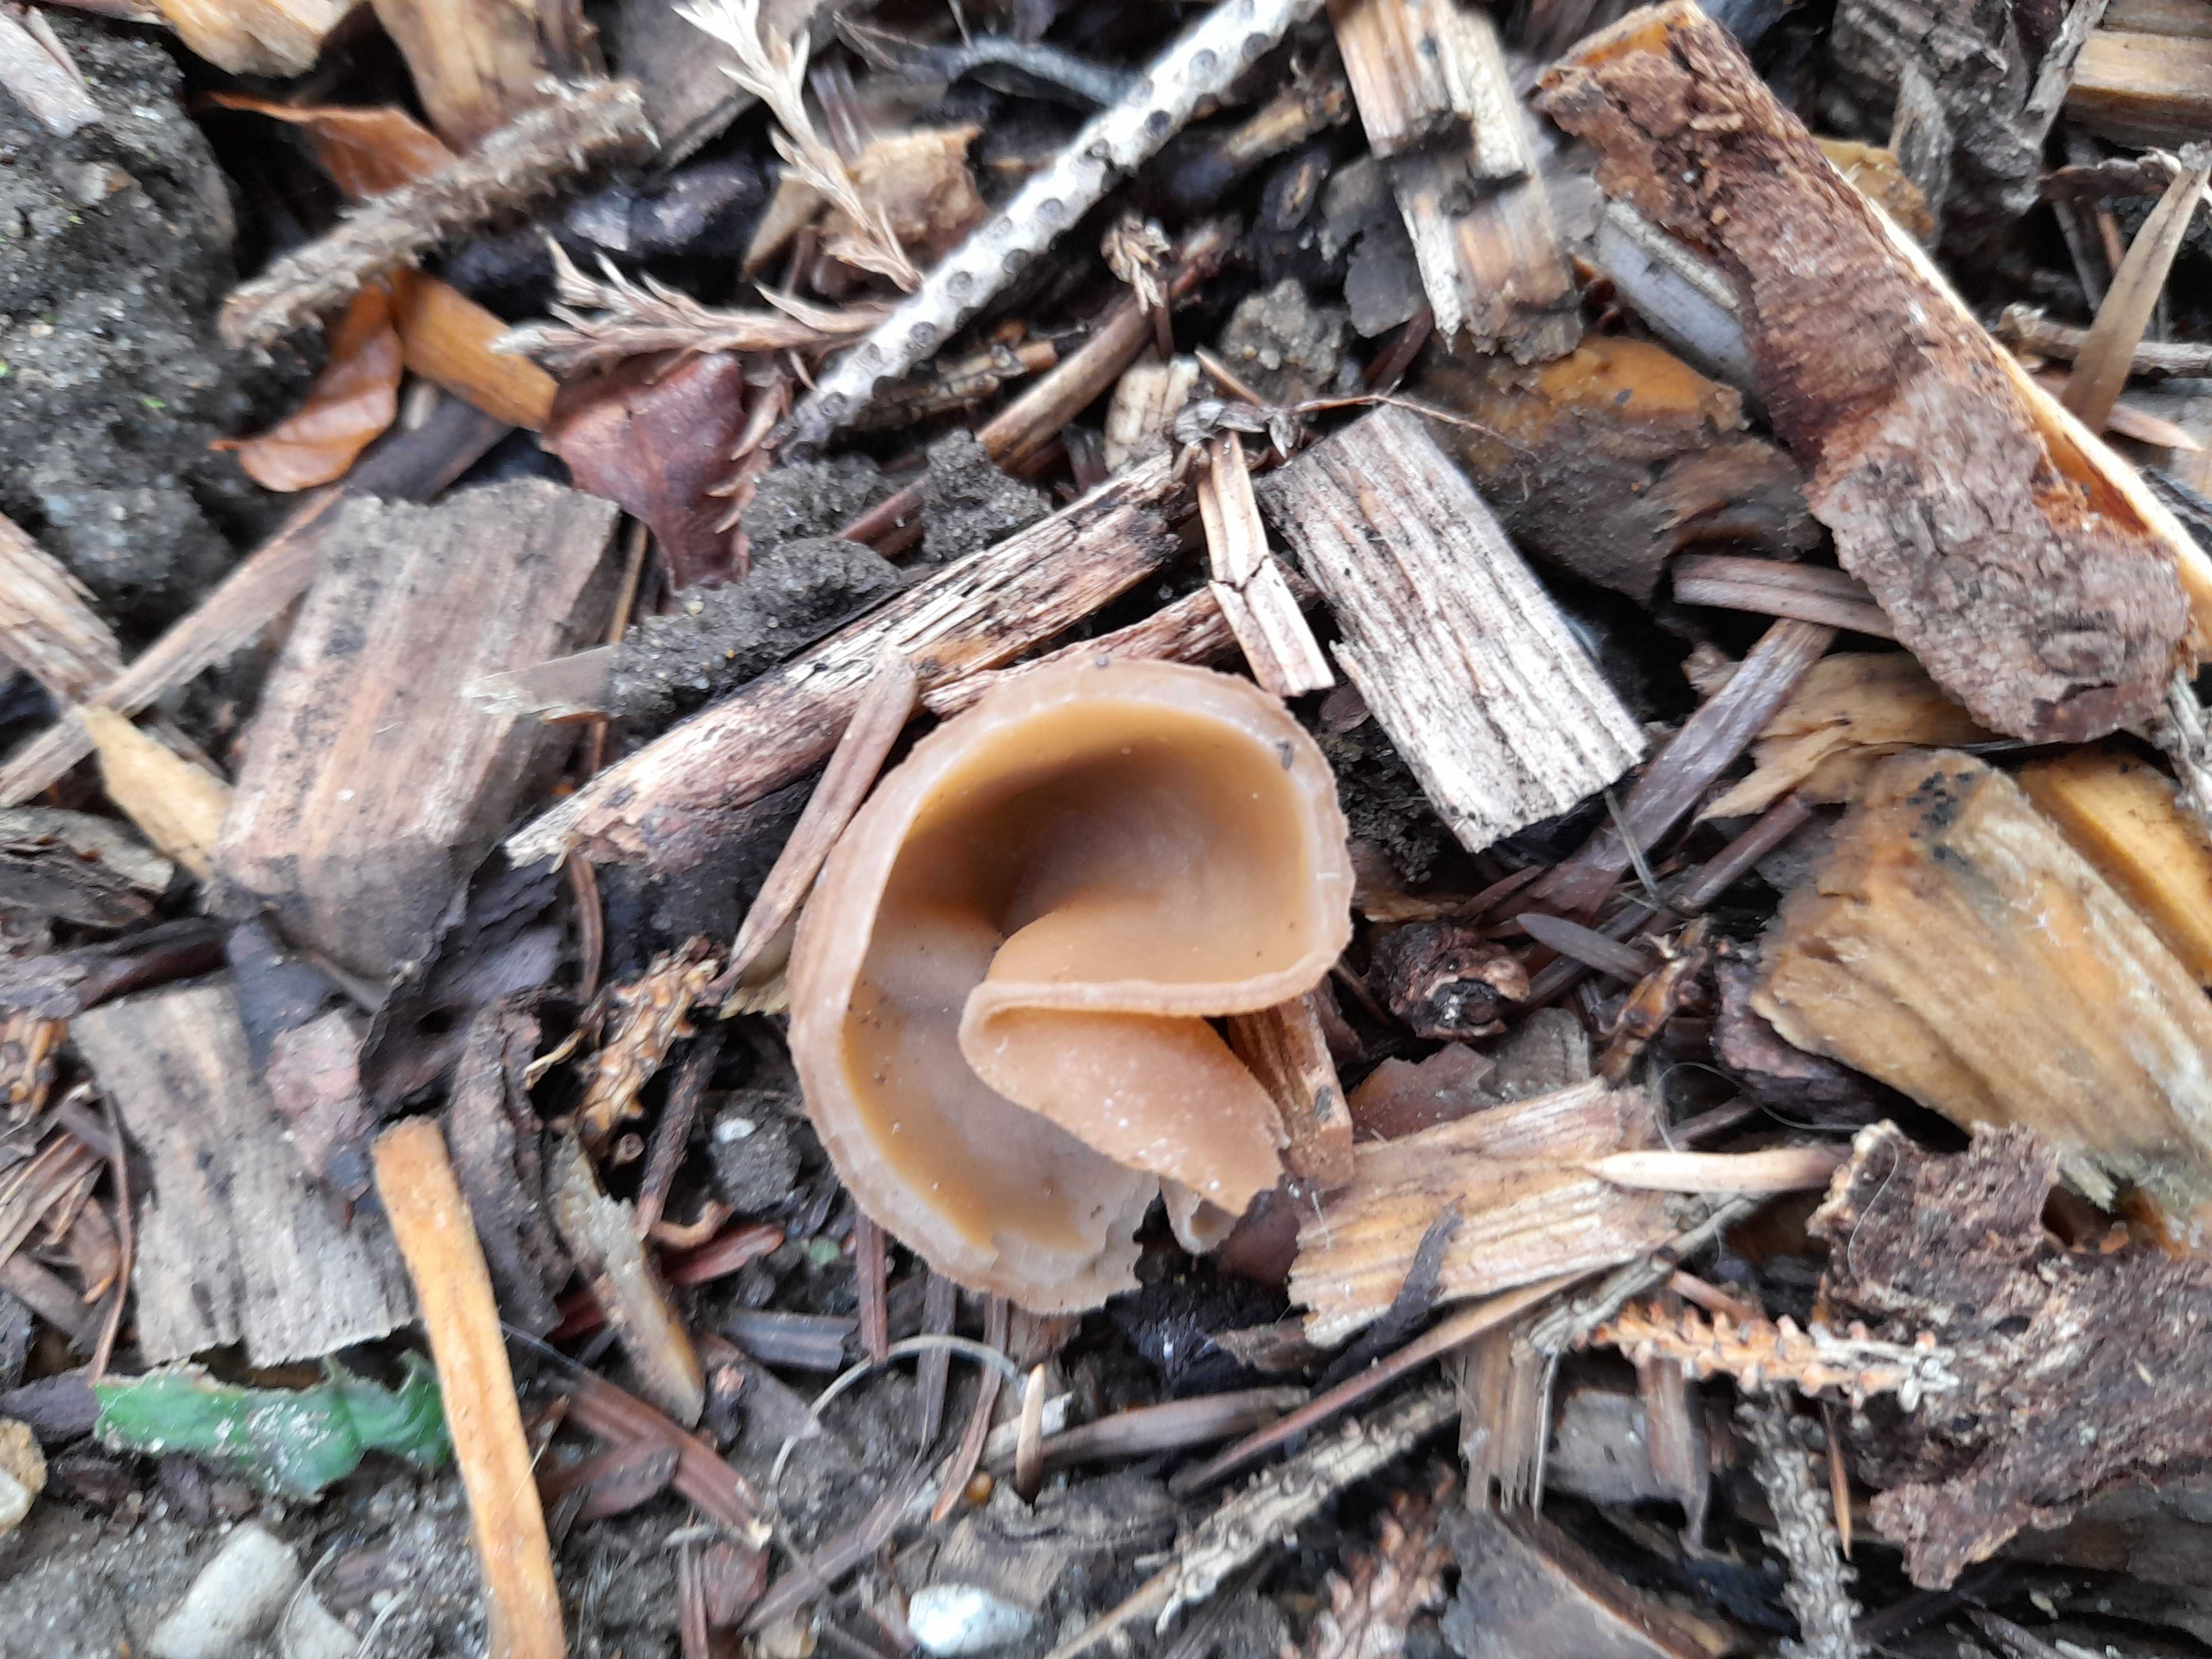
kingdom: Fungi
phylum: Ascomycota
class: Pezizomycetes
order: Pezizales
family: Pezizaceae
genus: Peziza
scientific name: Peziza
